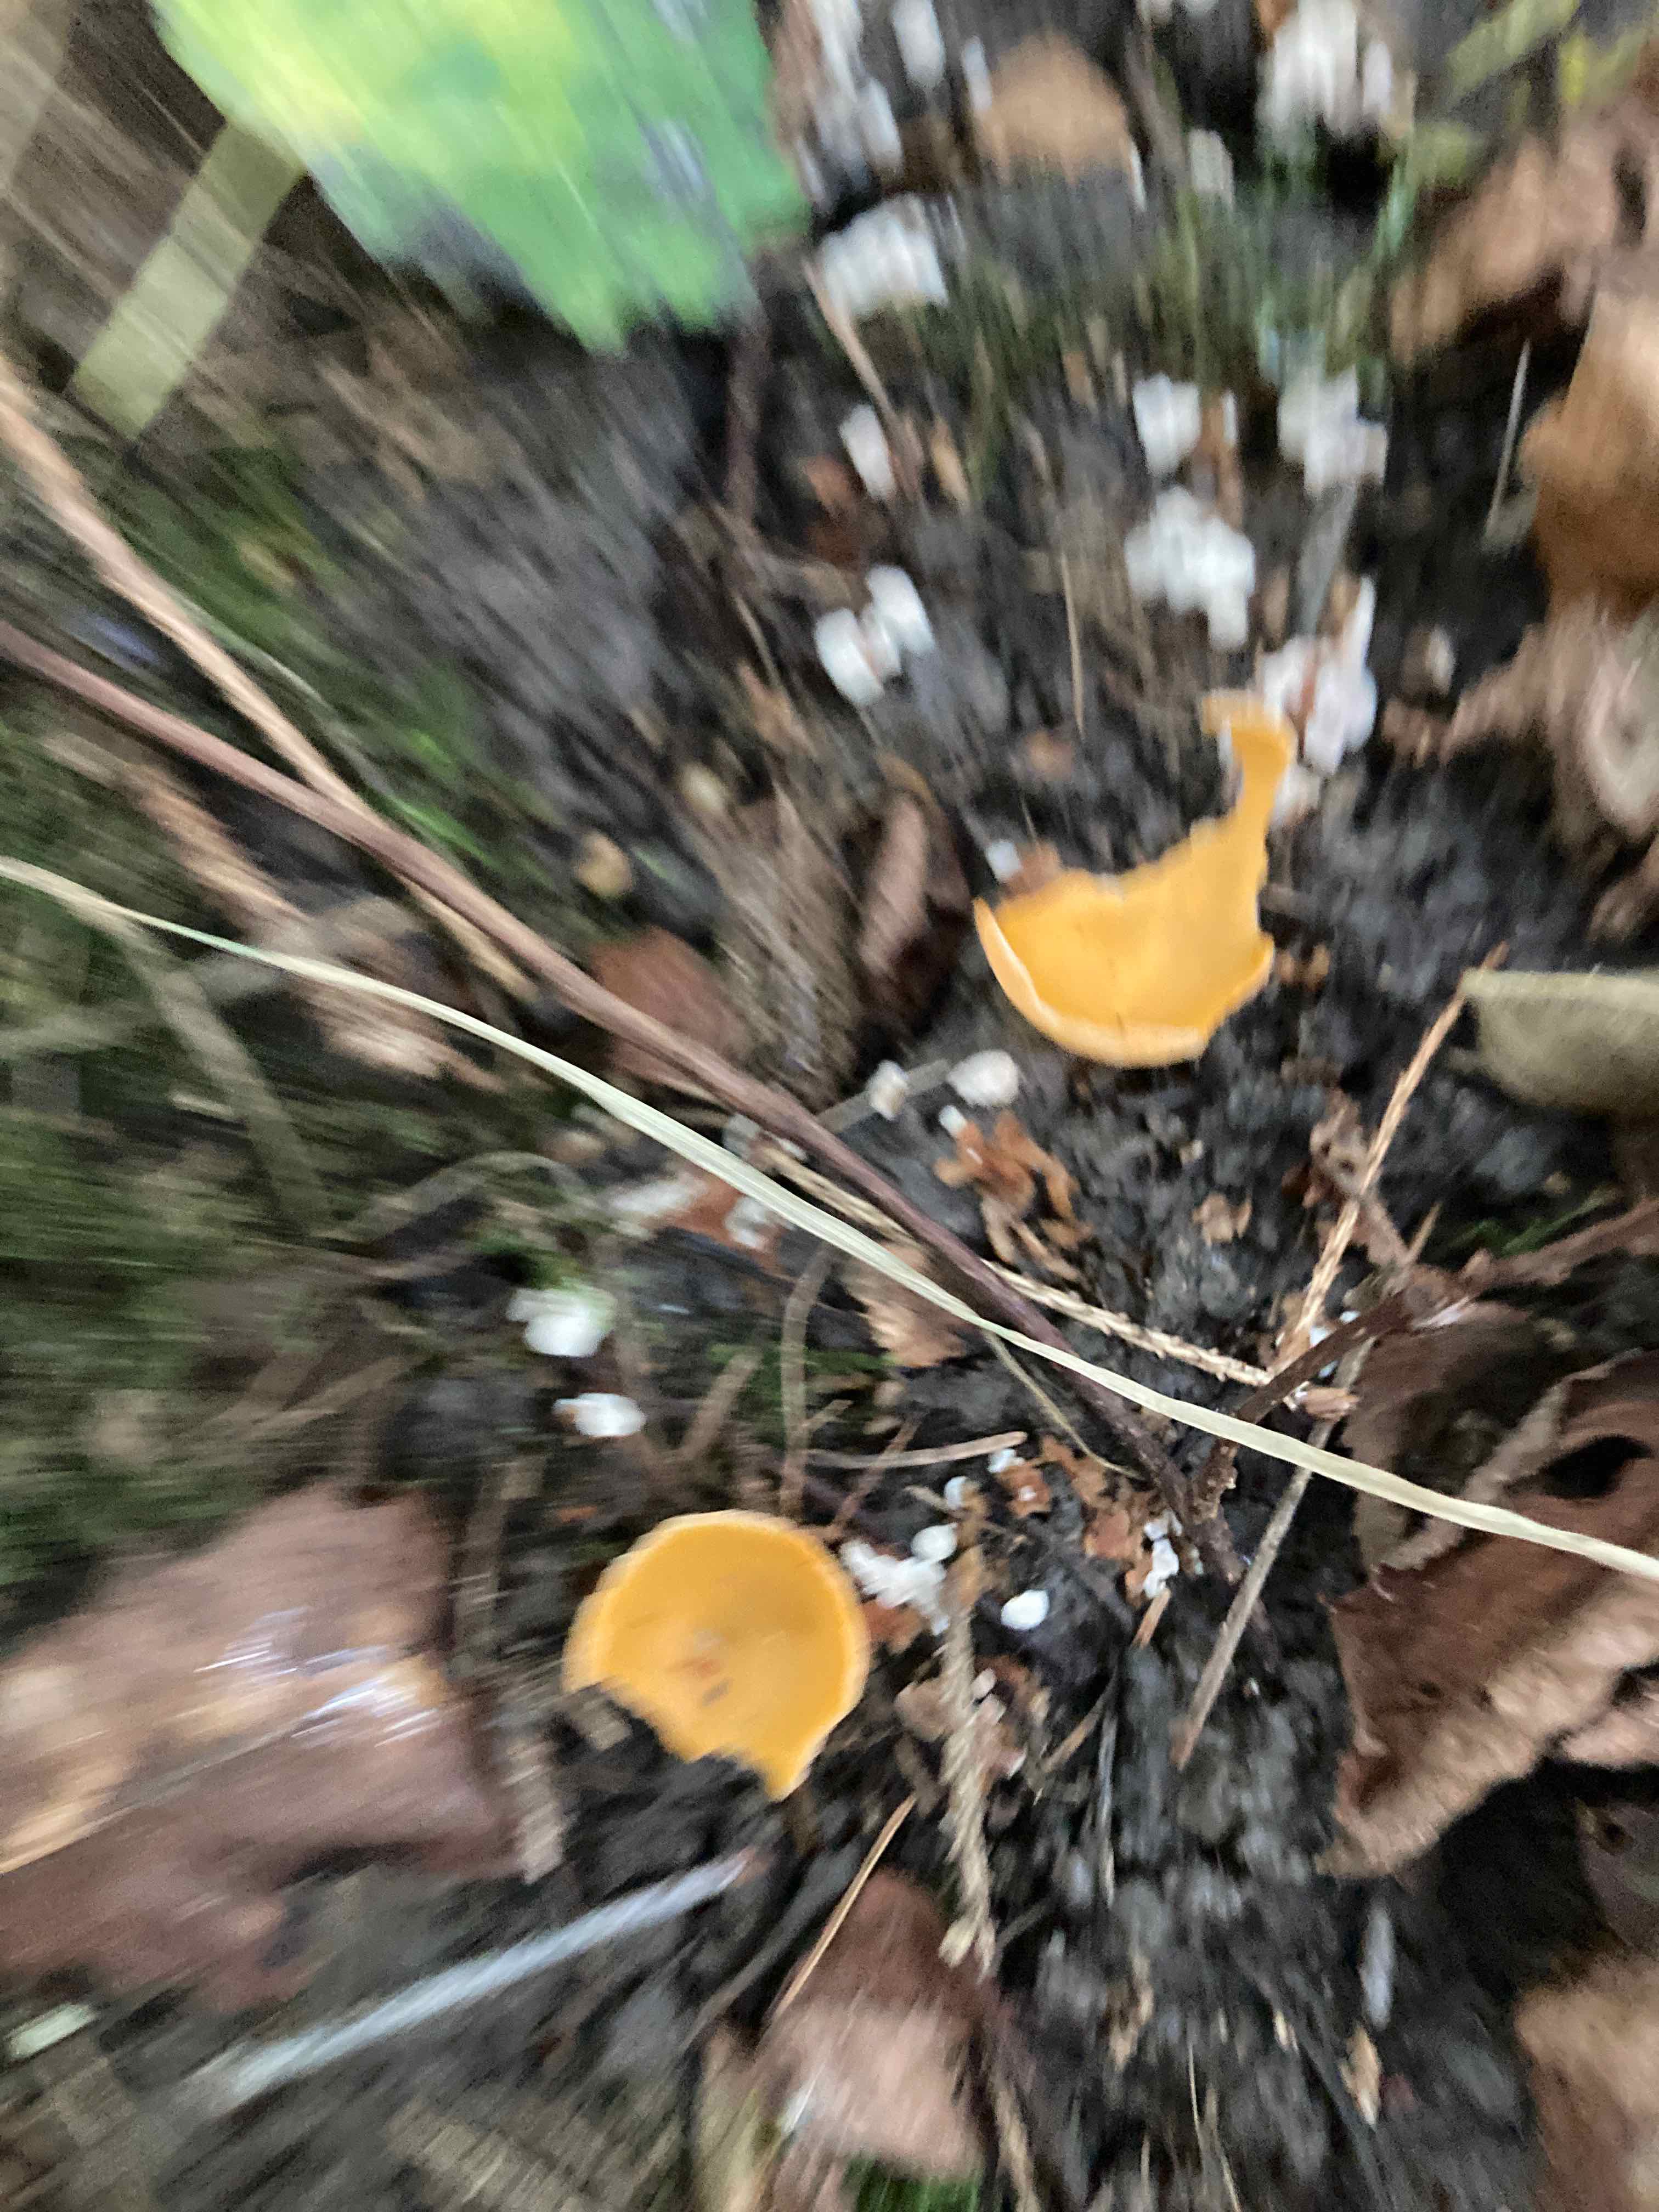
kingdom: Fungi
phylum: Ascomycota
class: Pezizomycetes
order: Pezizales
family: Pyronemataceae
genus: Aleuria
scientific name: Aleuria aurantia
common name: almindelig orangebæger
